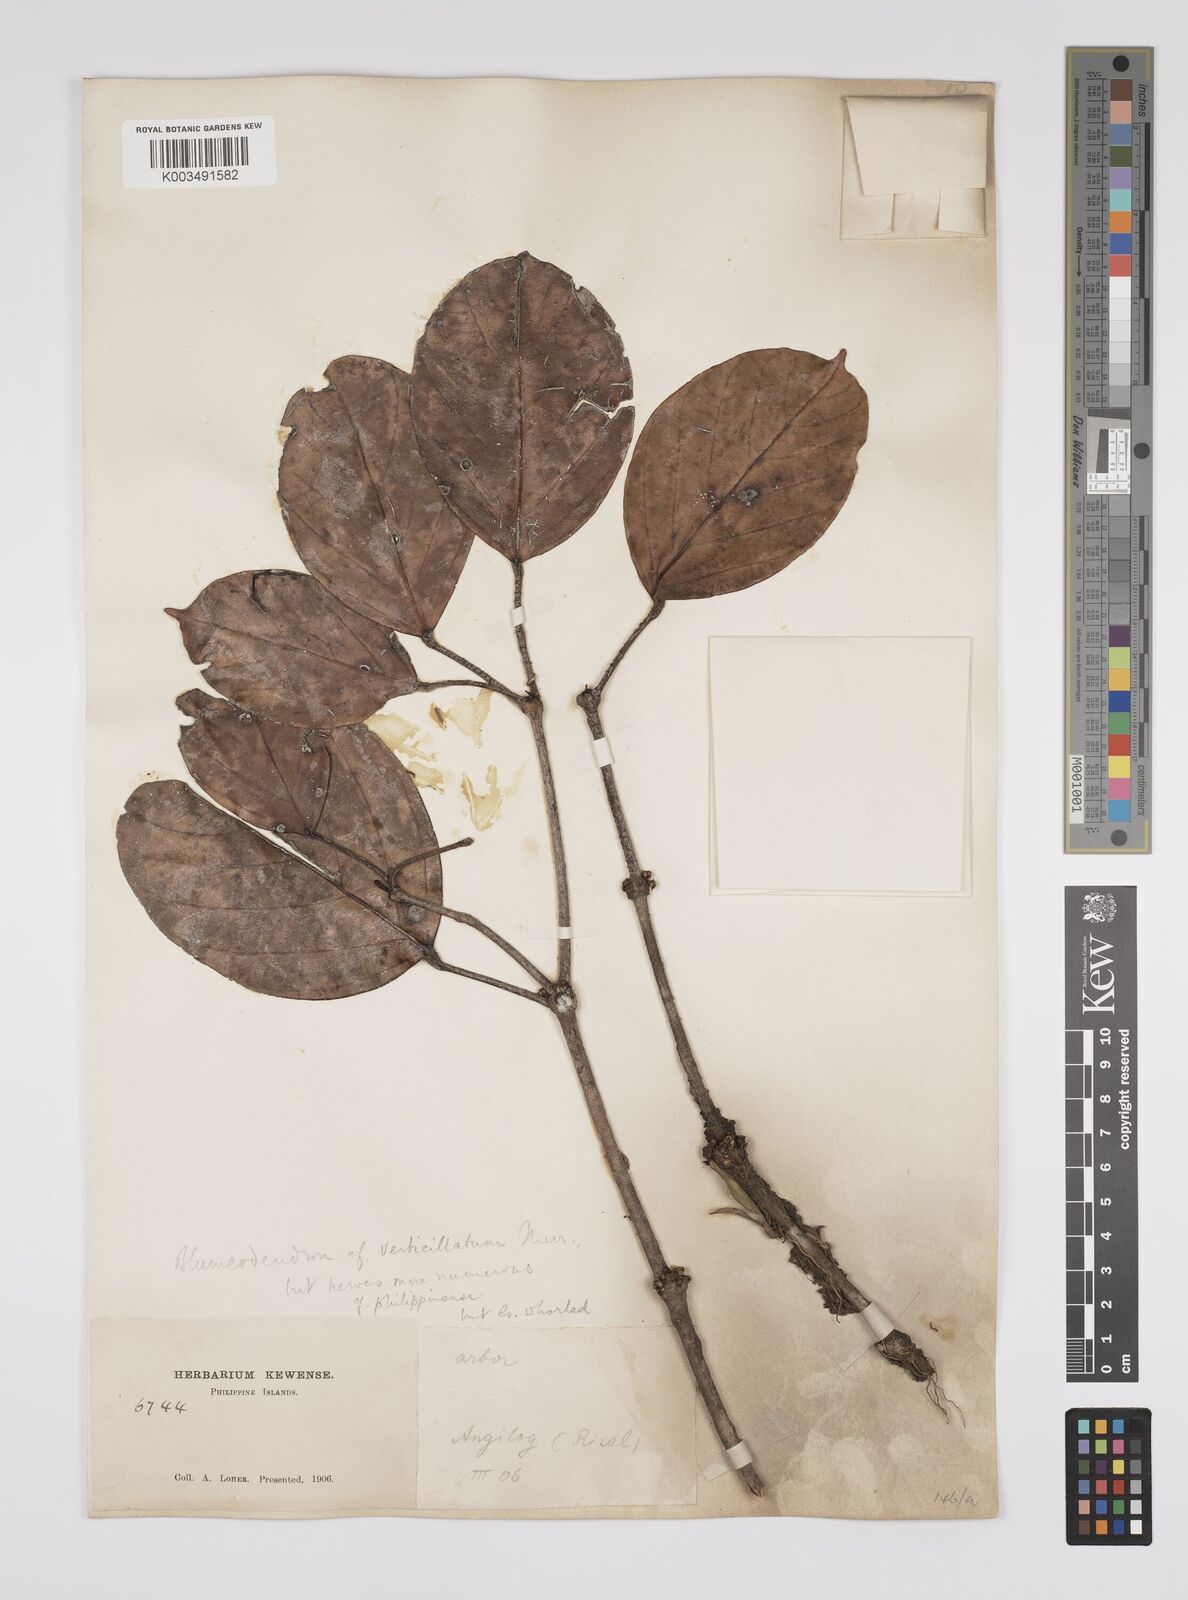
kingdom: Plantae
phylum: Tracheophyta
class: Magnoliopsida
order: Malpighiales
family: Euphorbiaceae
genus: Blumeodendron
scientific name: Blumeodendron
